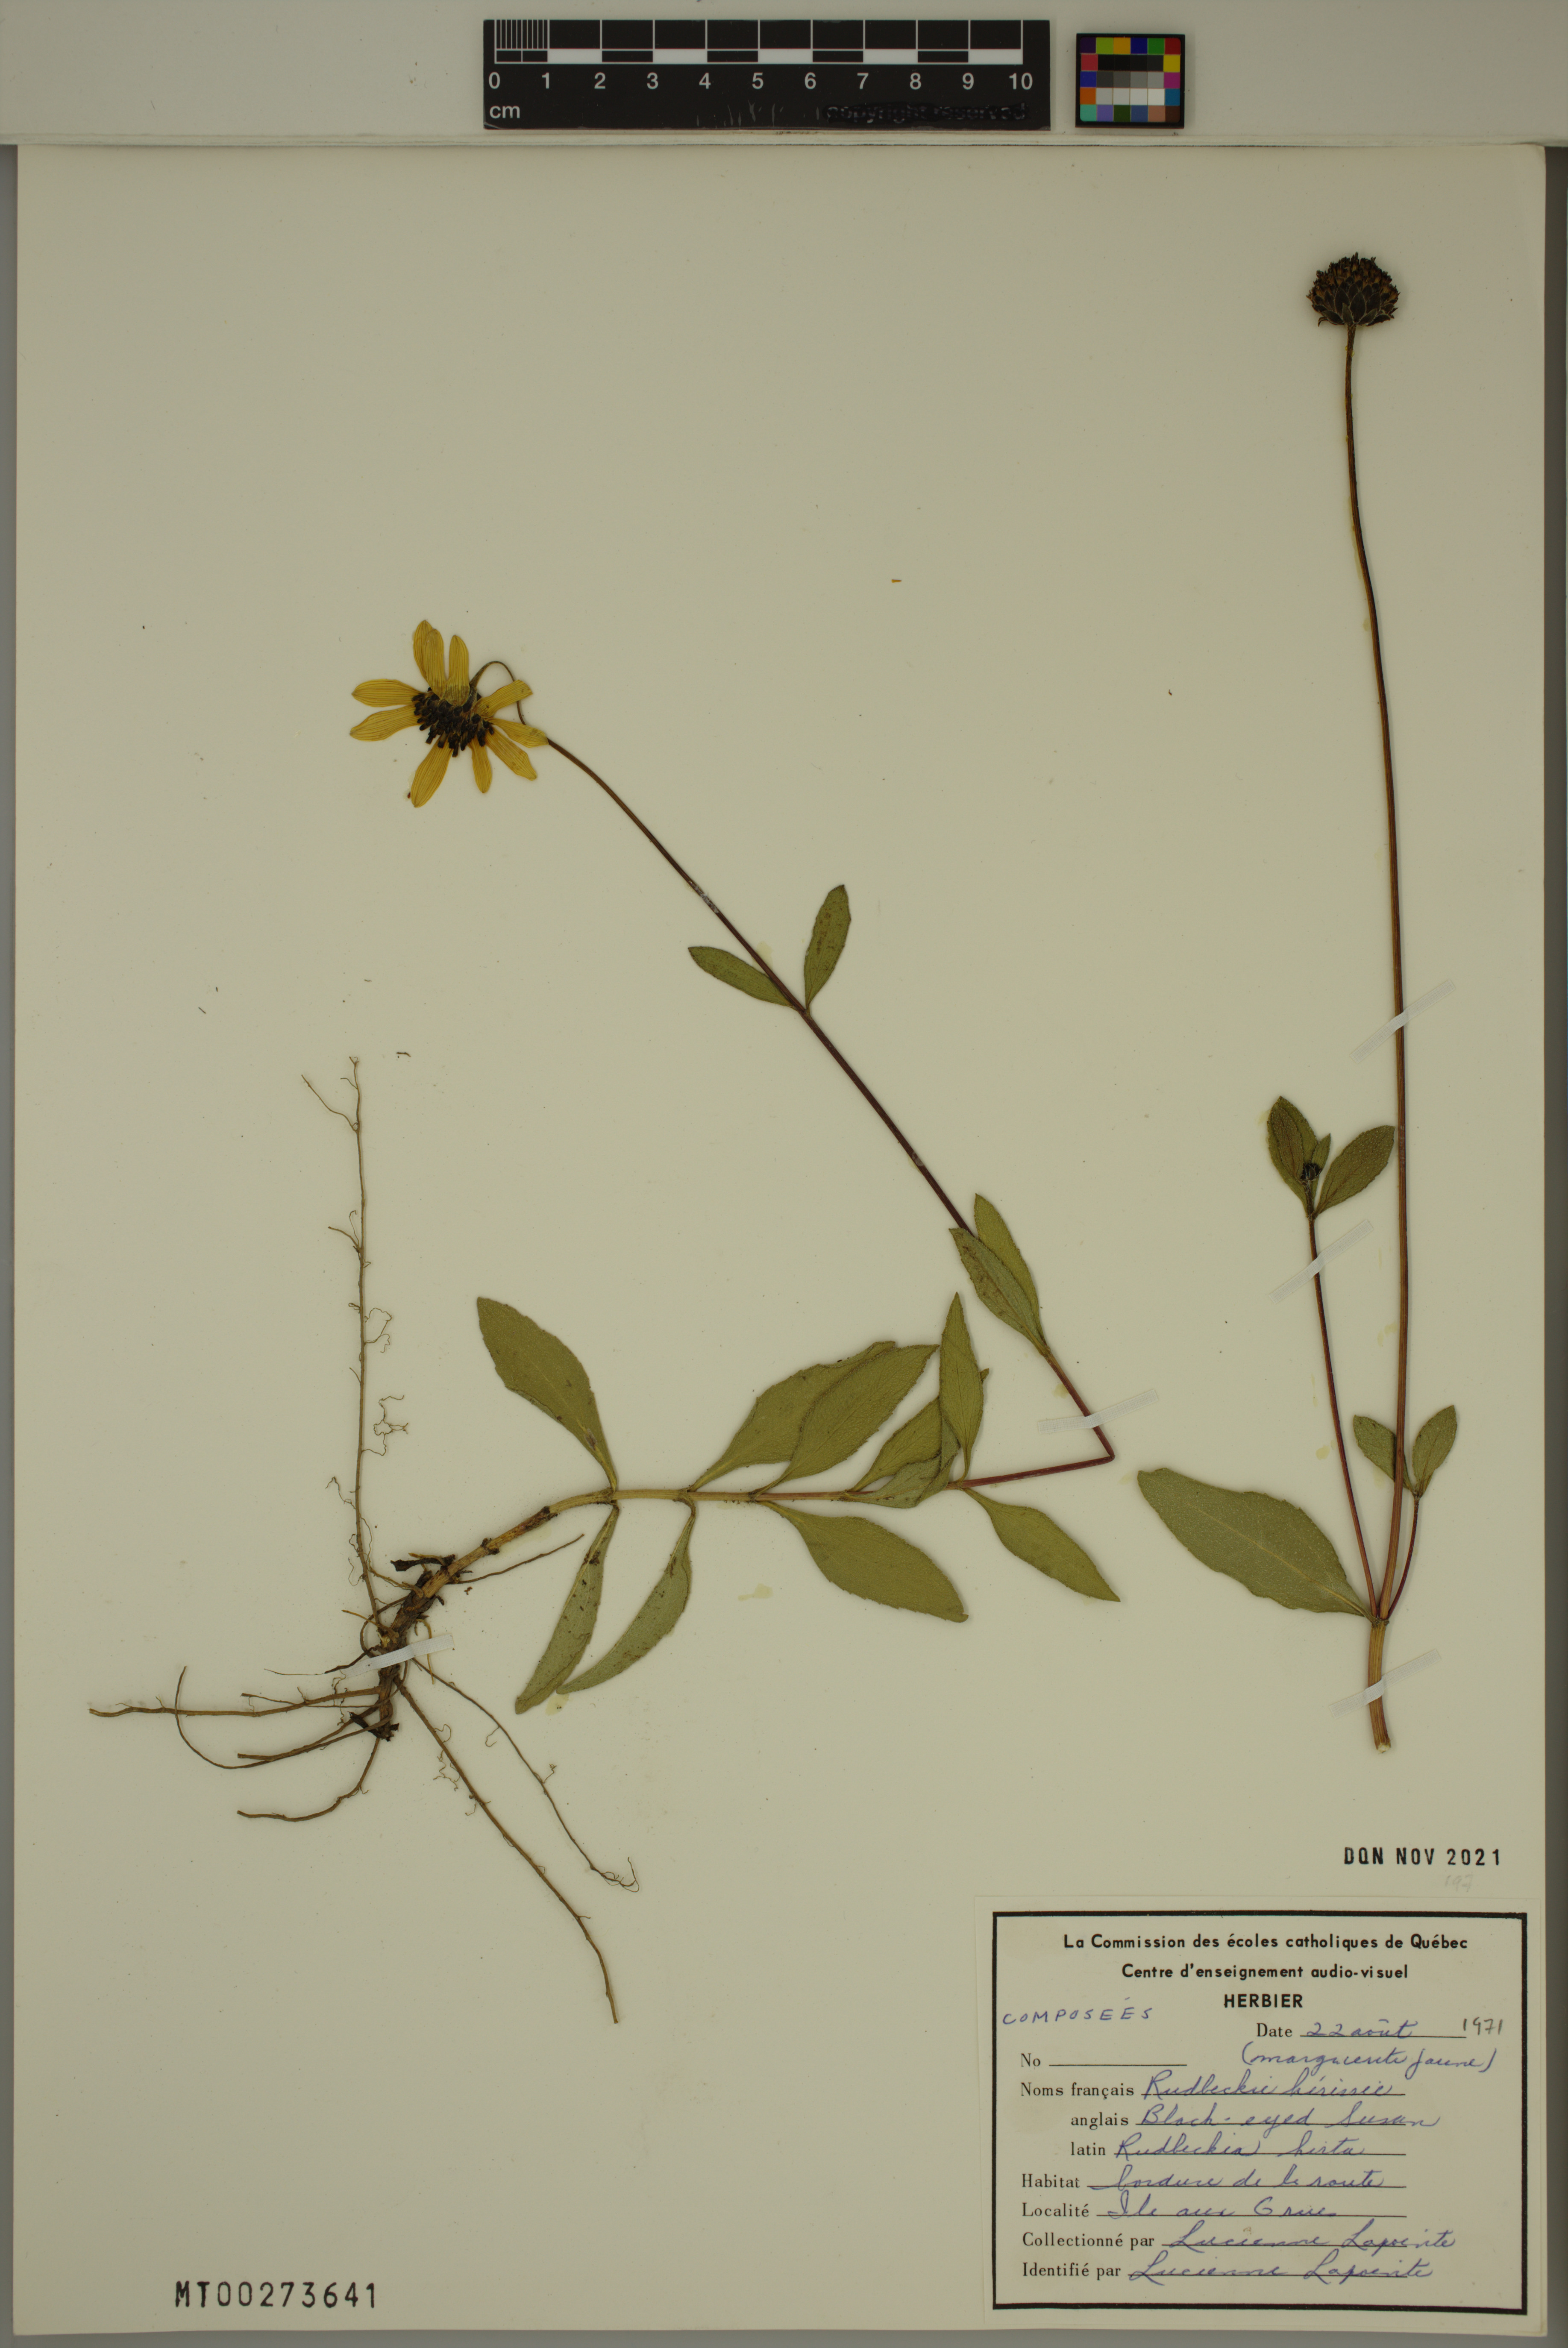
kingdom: Plantae
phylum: Tracheophyta
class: Magnoliopsida
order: Asterales
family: Asteraceae
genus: Rudbeckia
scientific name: Rudbeckia hirta
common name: Black-eyed-susan
